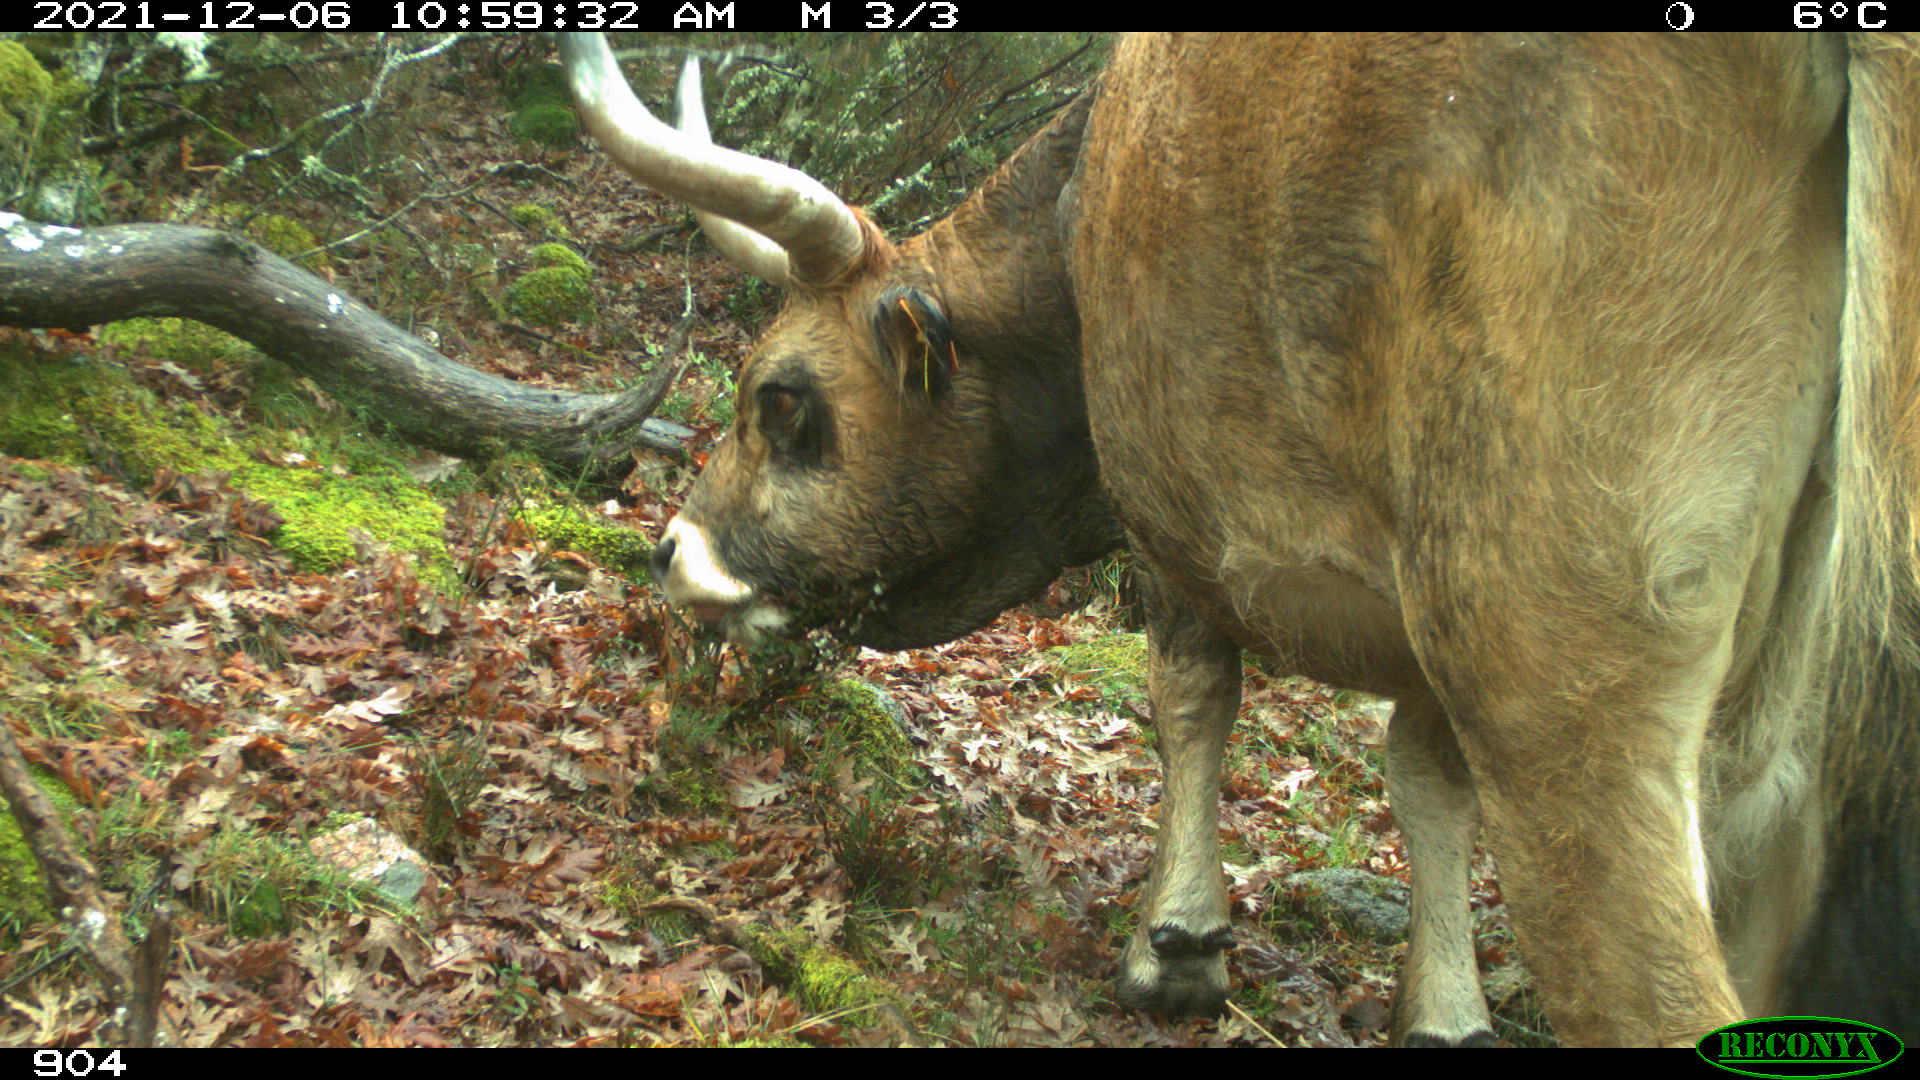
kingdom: Animalia
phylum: Chordata
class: Mammalia
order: Artiodactyla
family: Bovidae
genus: Bos
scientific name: Bos taurus
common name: Domesticated cattle
